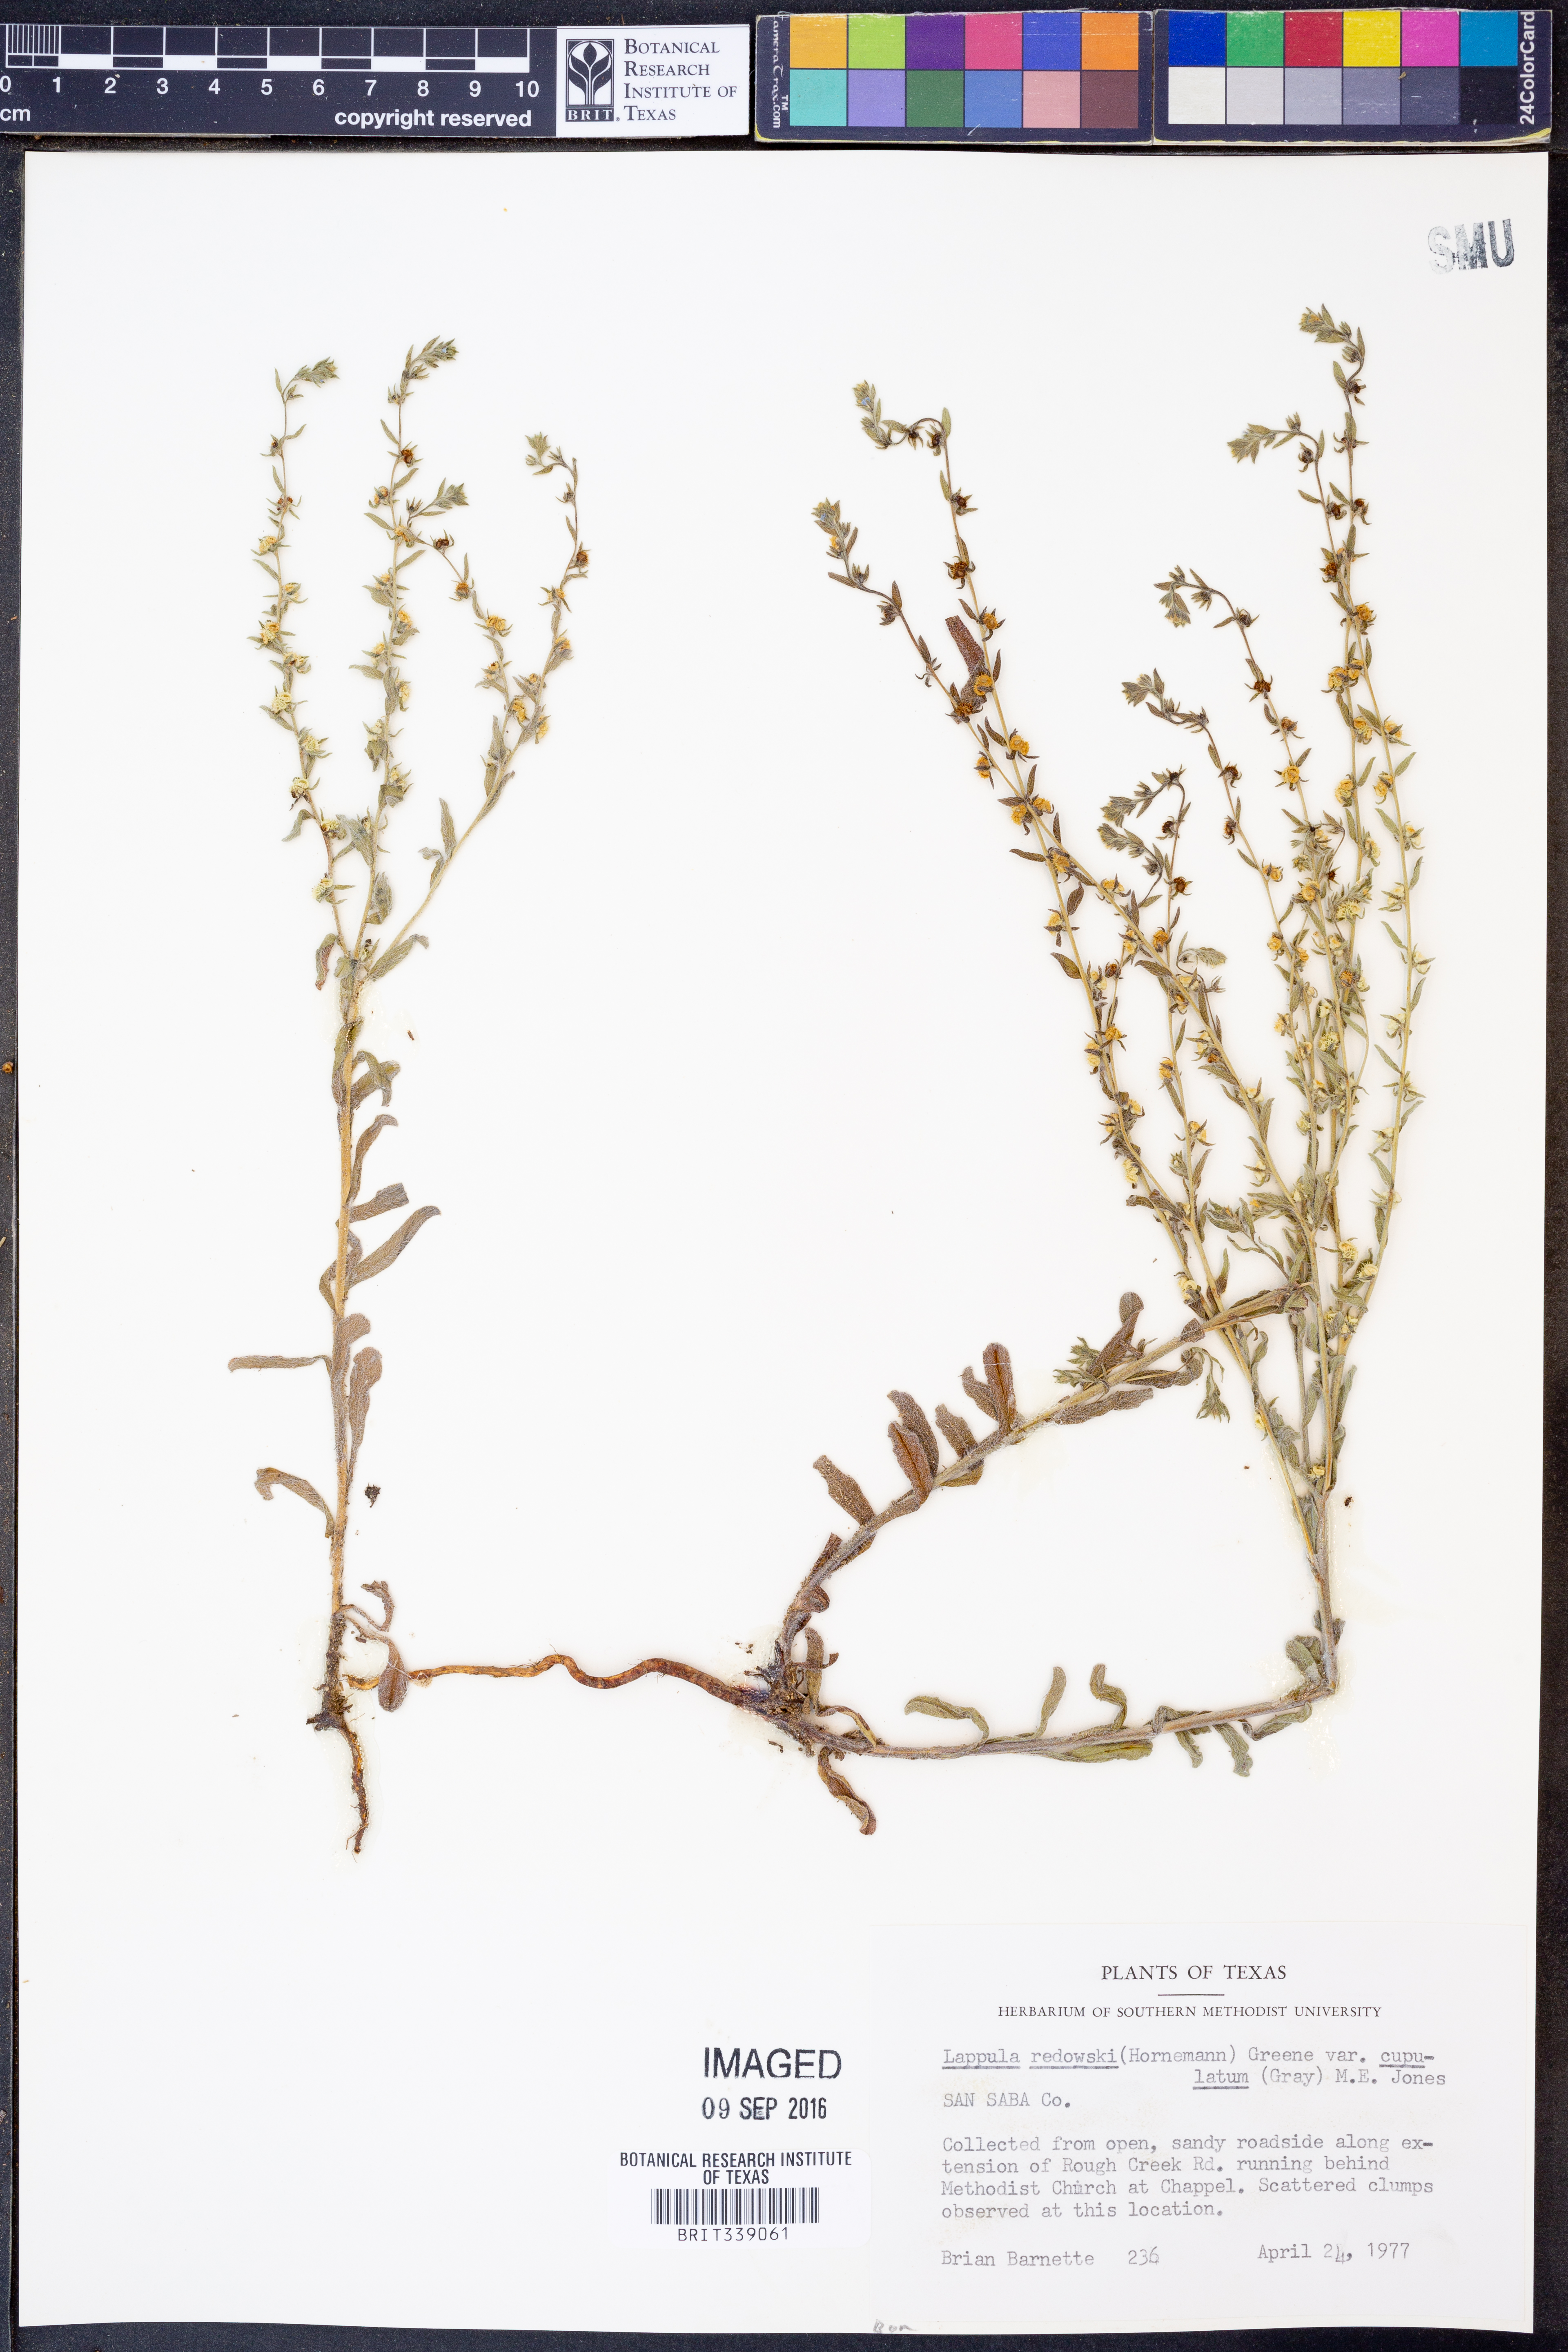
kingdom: Plantae
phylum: Tracheophyta
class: Magnoliopsida
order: Boraginales
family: Boraginaceae
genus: Lappula
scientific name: Lappula occidentalis
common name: Western stickseed
